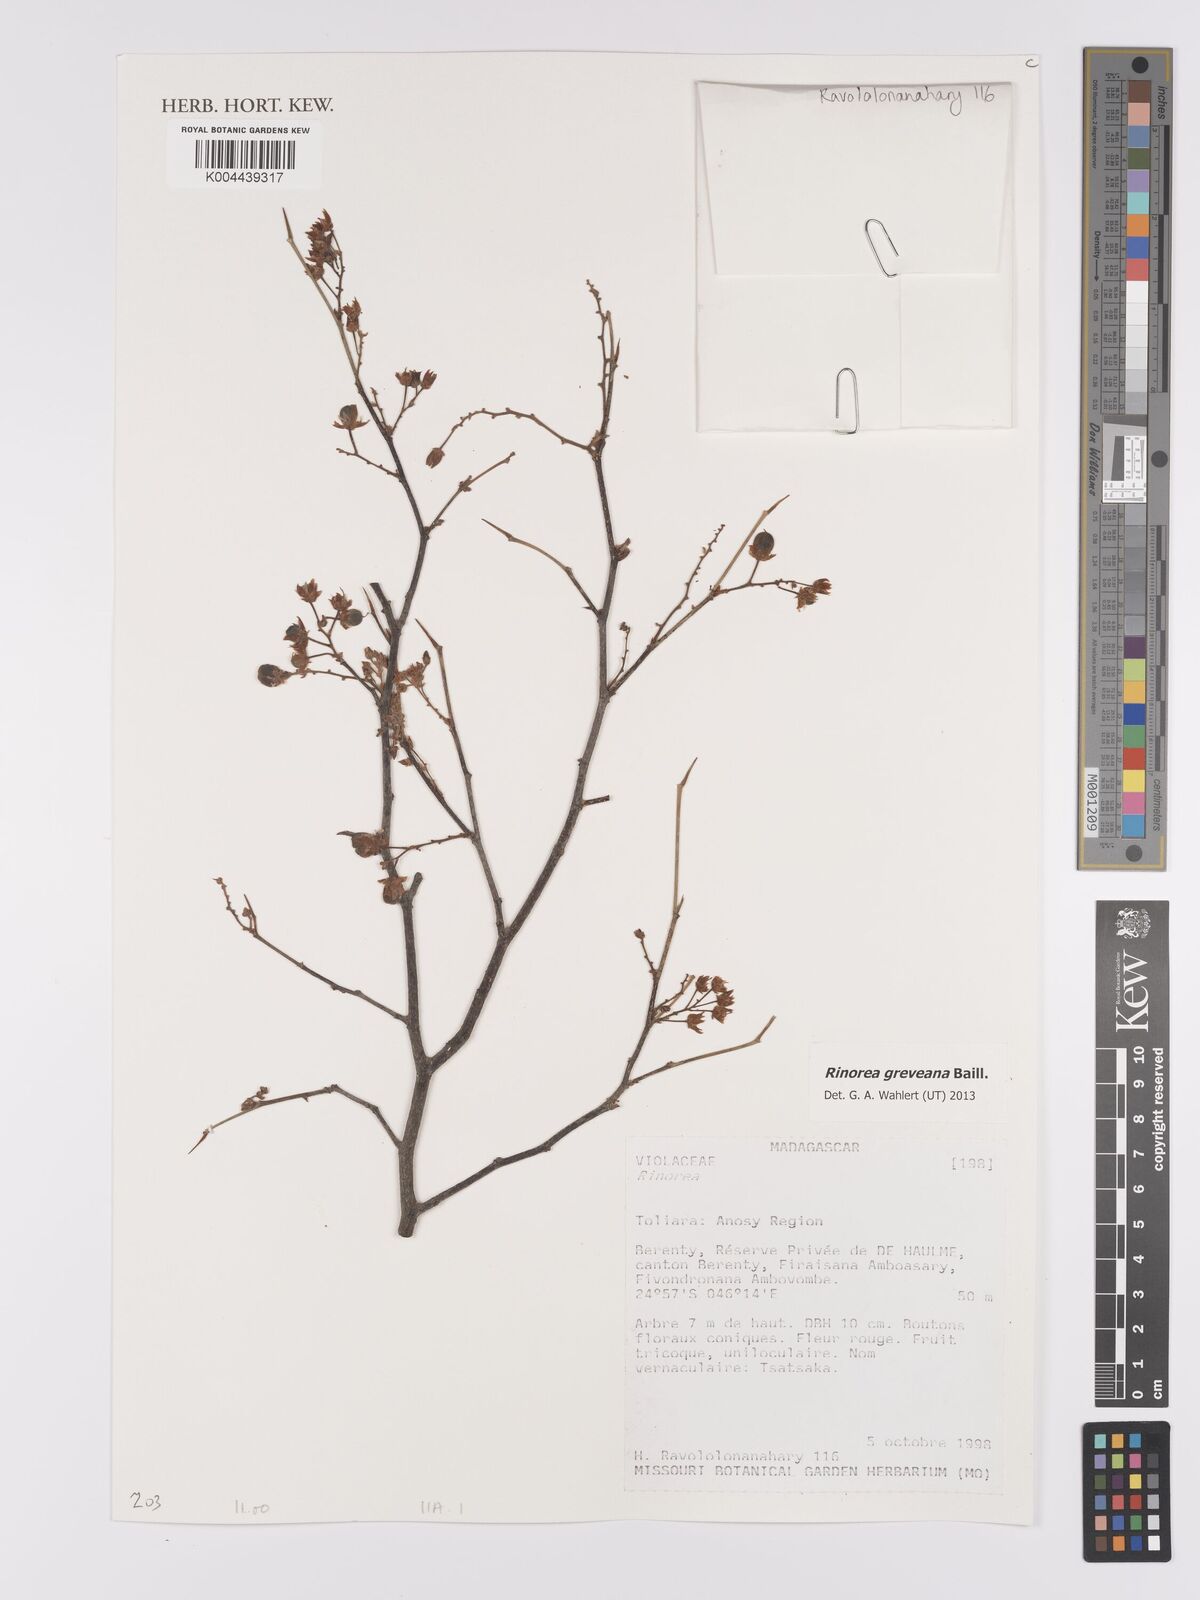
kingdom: Plantae
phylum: Tracheophyta
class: Magnoliopsida
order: Malpighiales
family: Violaceae
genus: Rinorea
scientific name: Rinorea greveana
